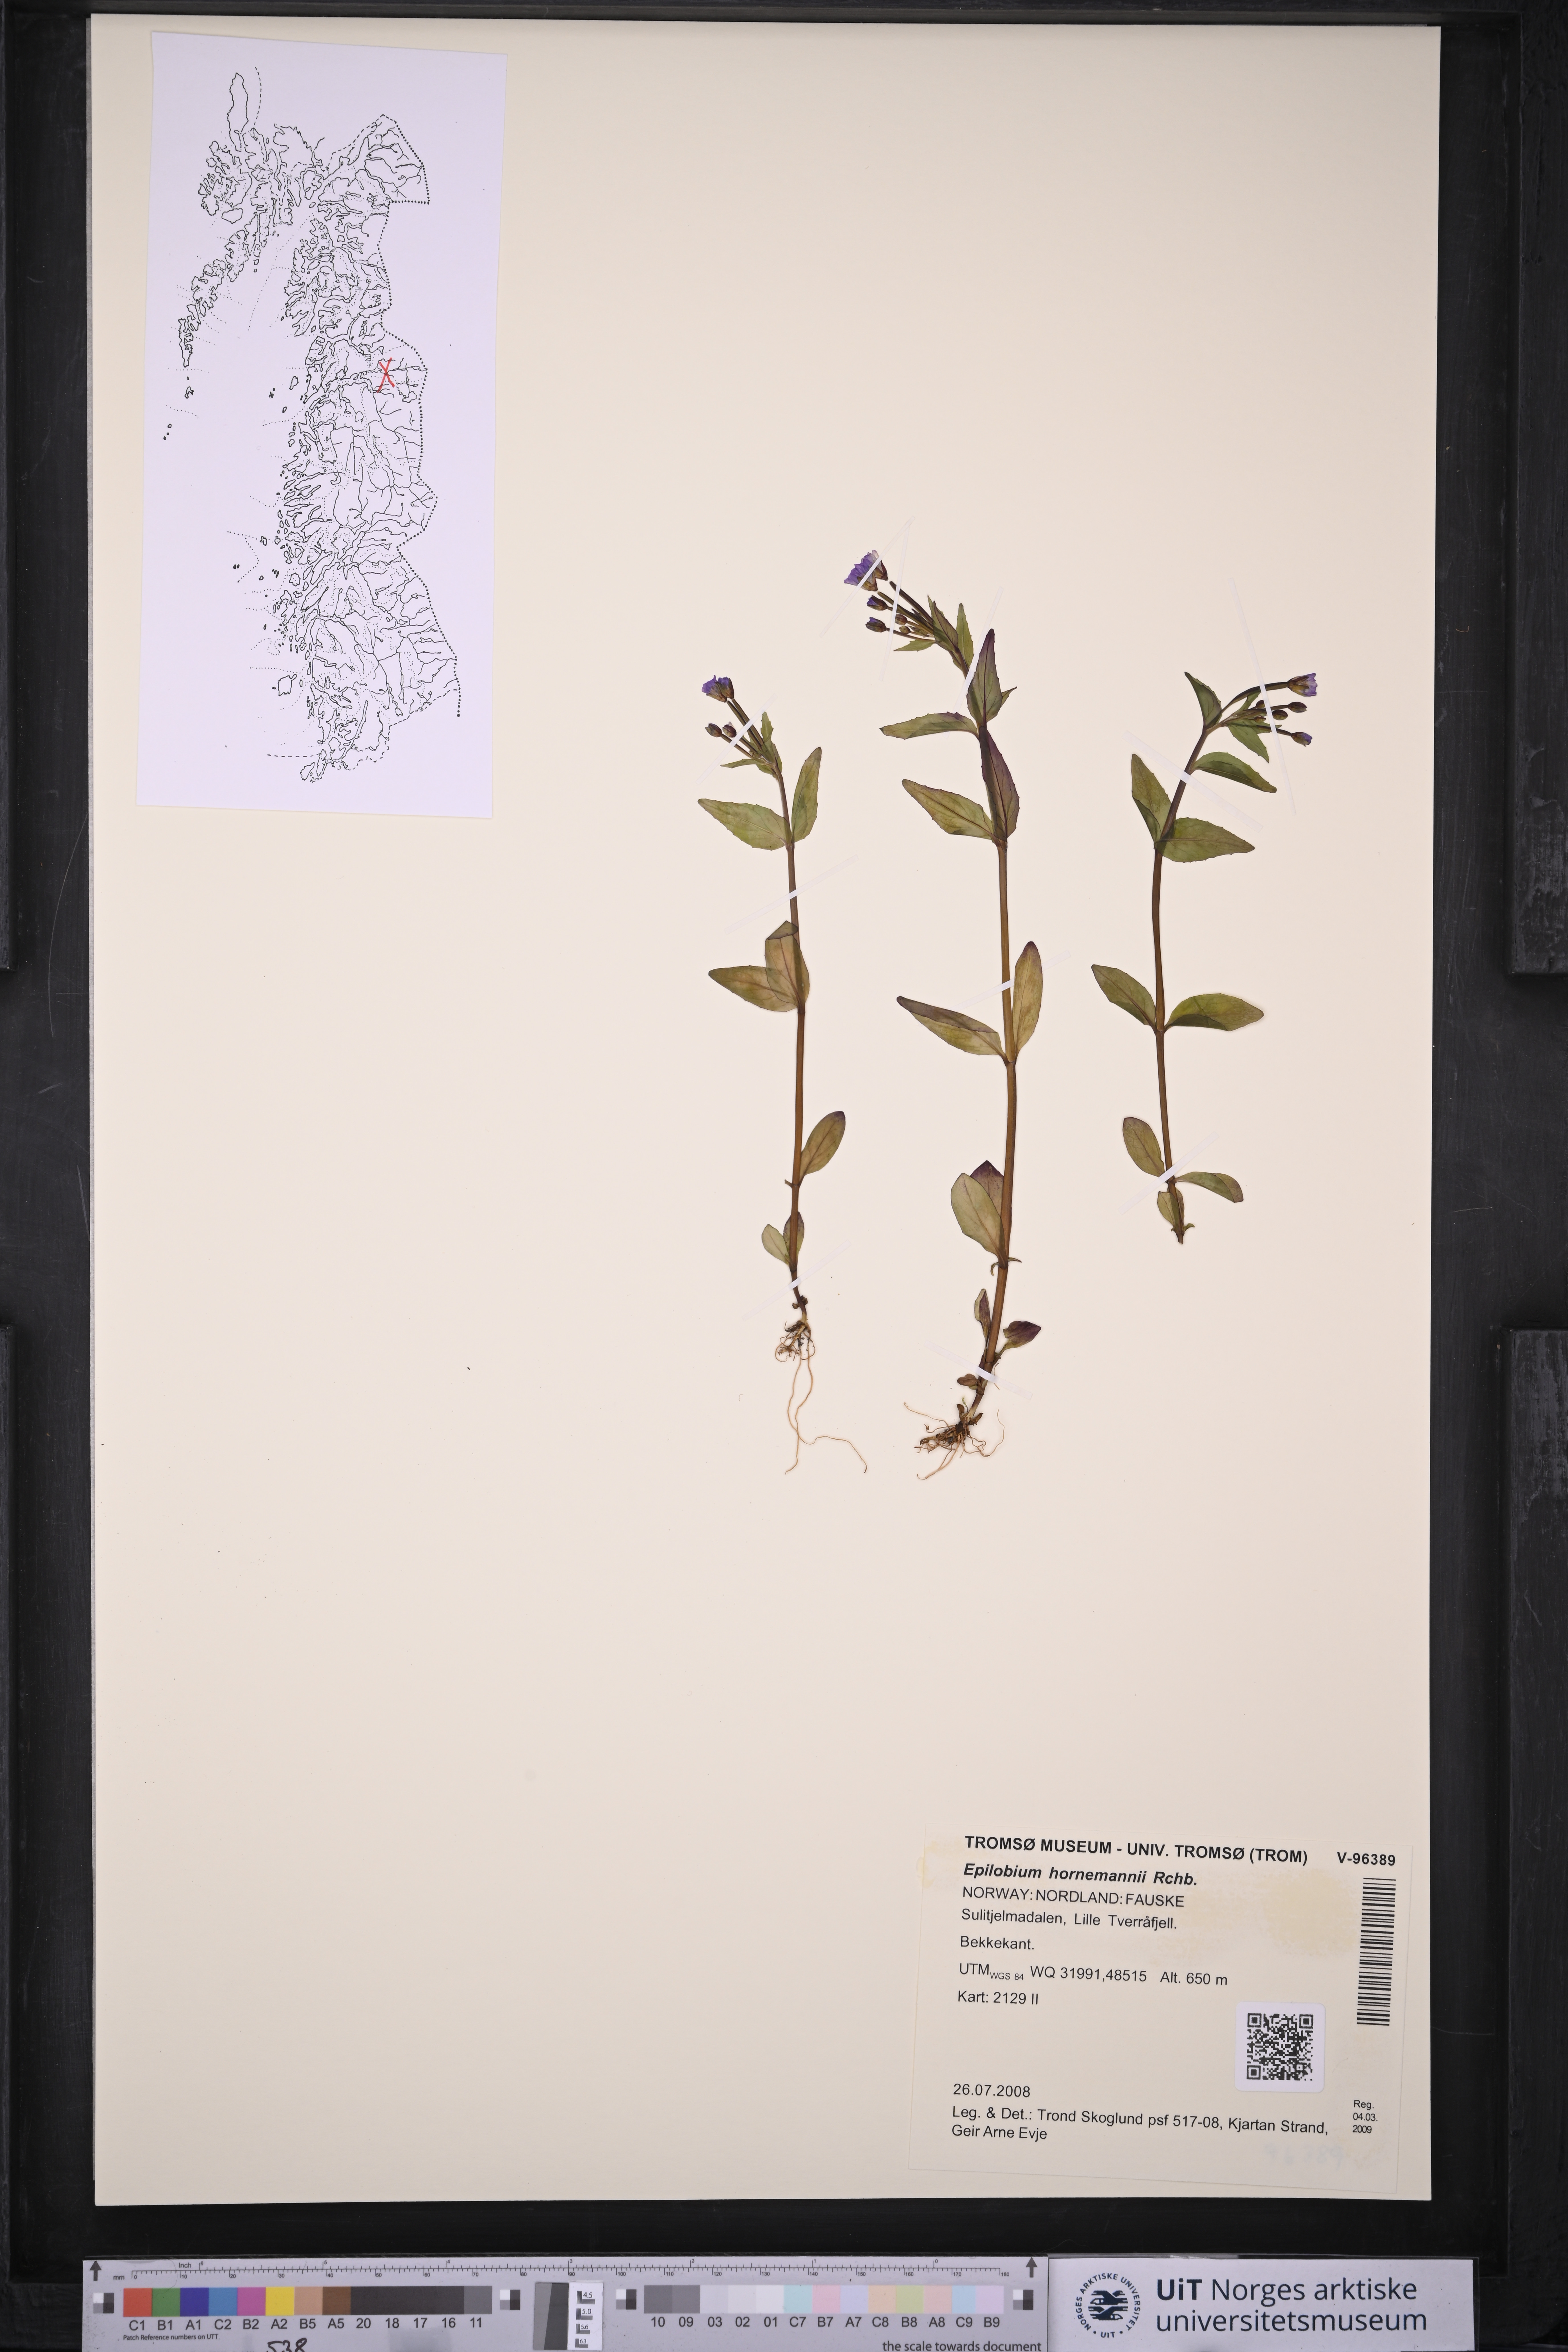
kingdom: Plantae
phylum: Tracheophyta
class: Magnoliopsida
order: Myrtales
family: Onagraceae
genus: Epilobium
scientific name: Epilobium hornemannii
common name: Hornemann's willowherb
